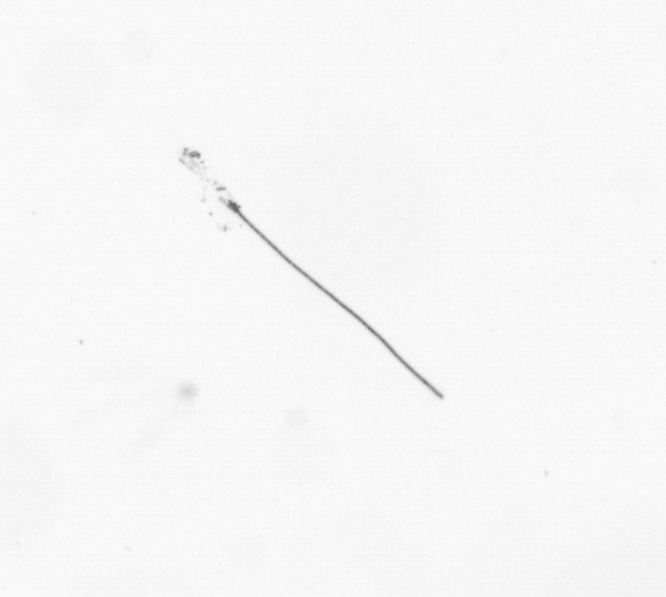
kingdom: Chromista
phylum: Ochrophyta
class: Bacillariophyceae
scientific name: Bacillariophyceae
